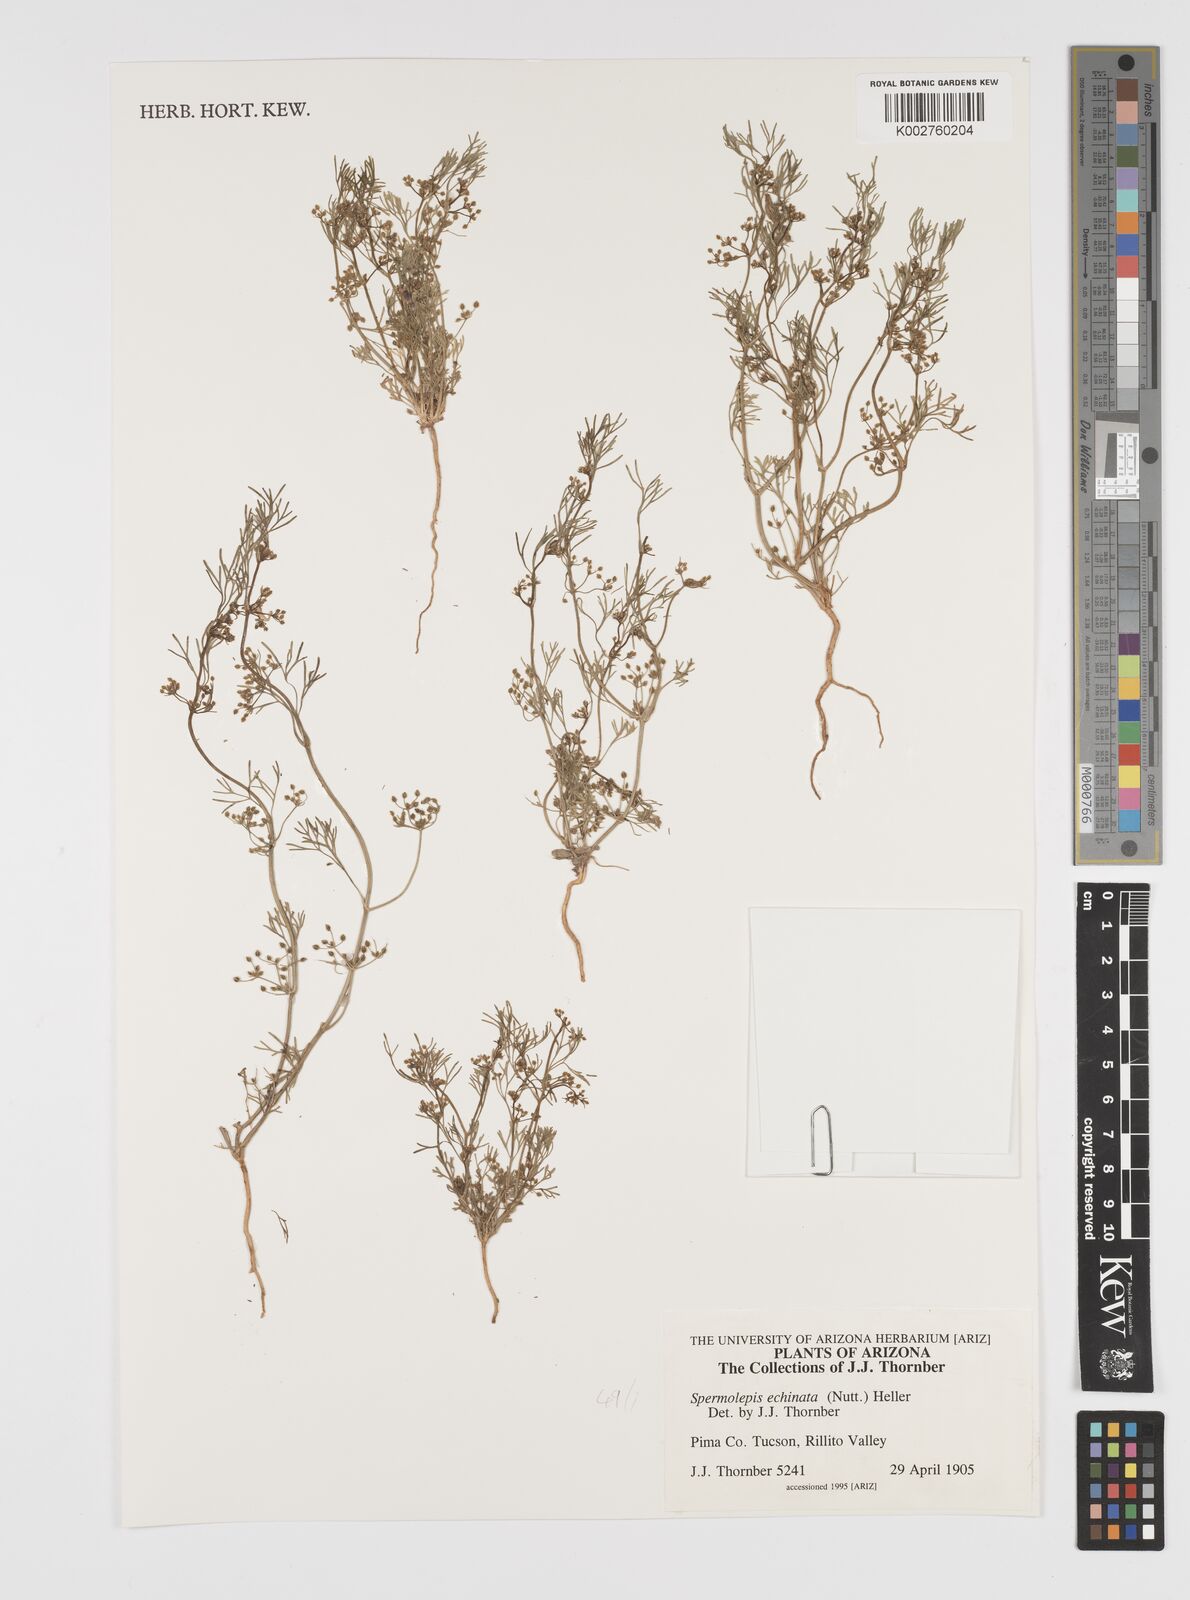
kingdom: Plantae
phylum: Tracheophyta
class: Magnoliopsida
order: Apiales
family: Apiaceae
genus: Spermolepis
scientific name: Spermolepis echinata
